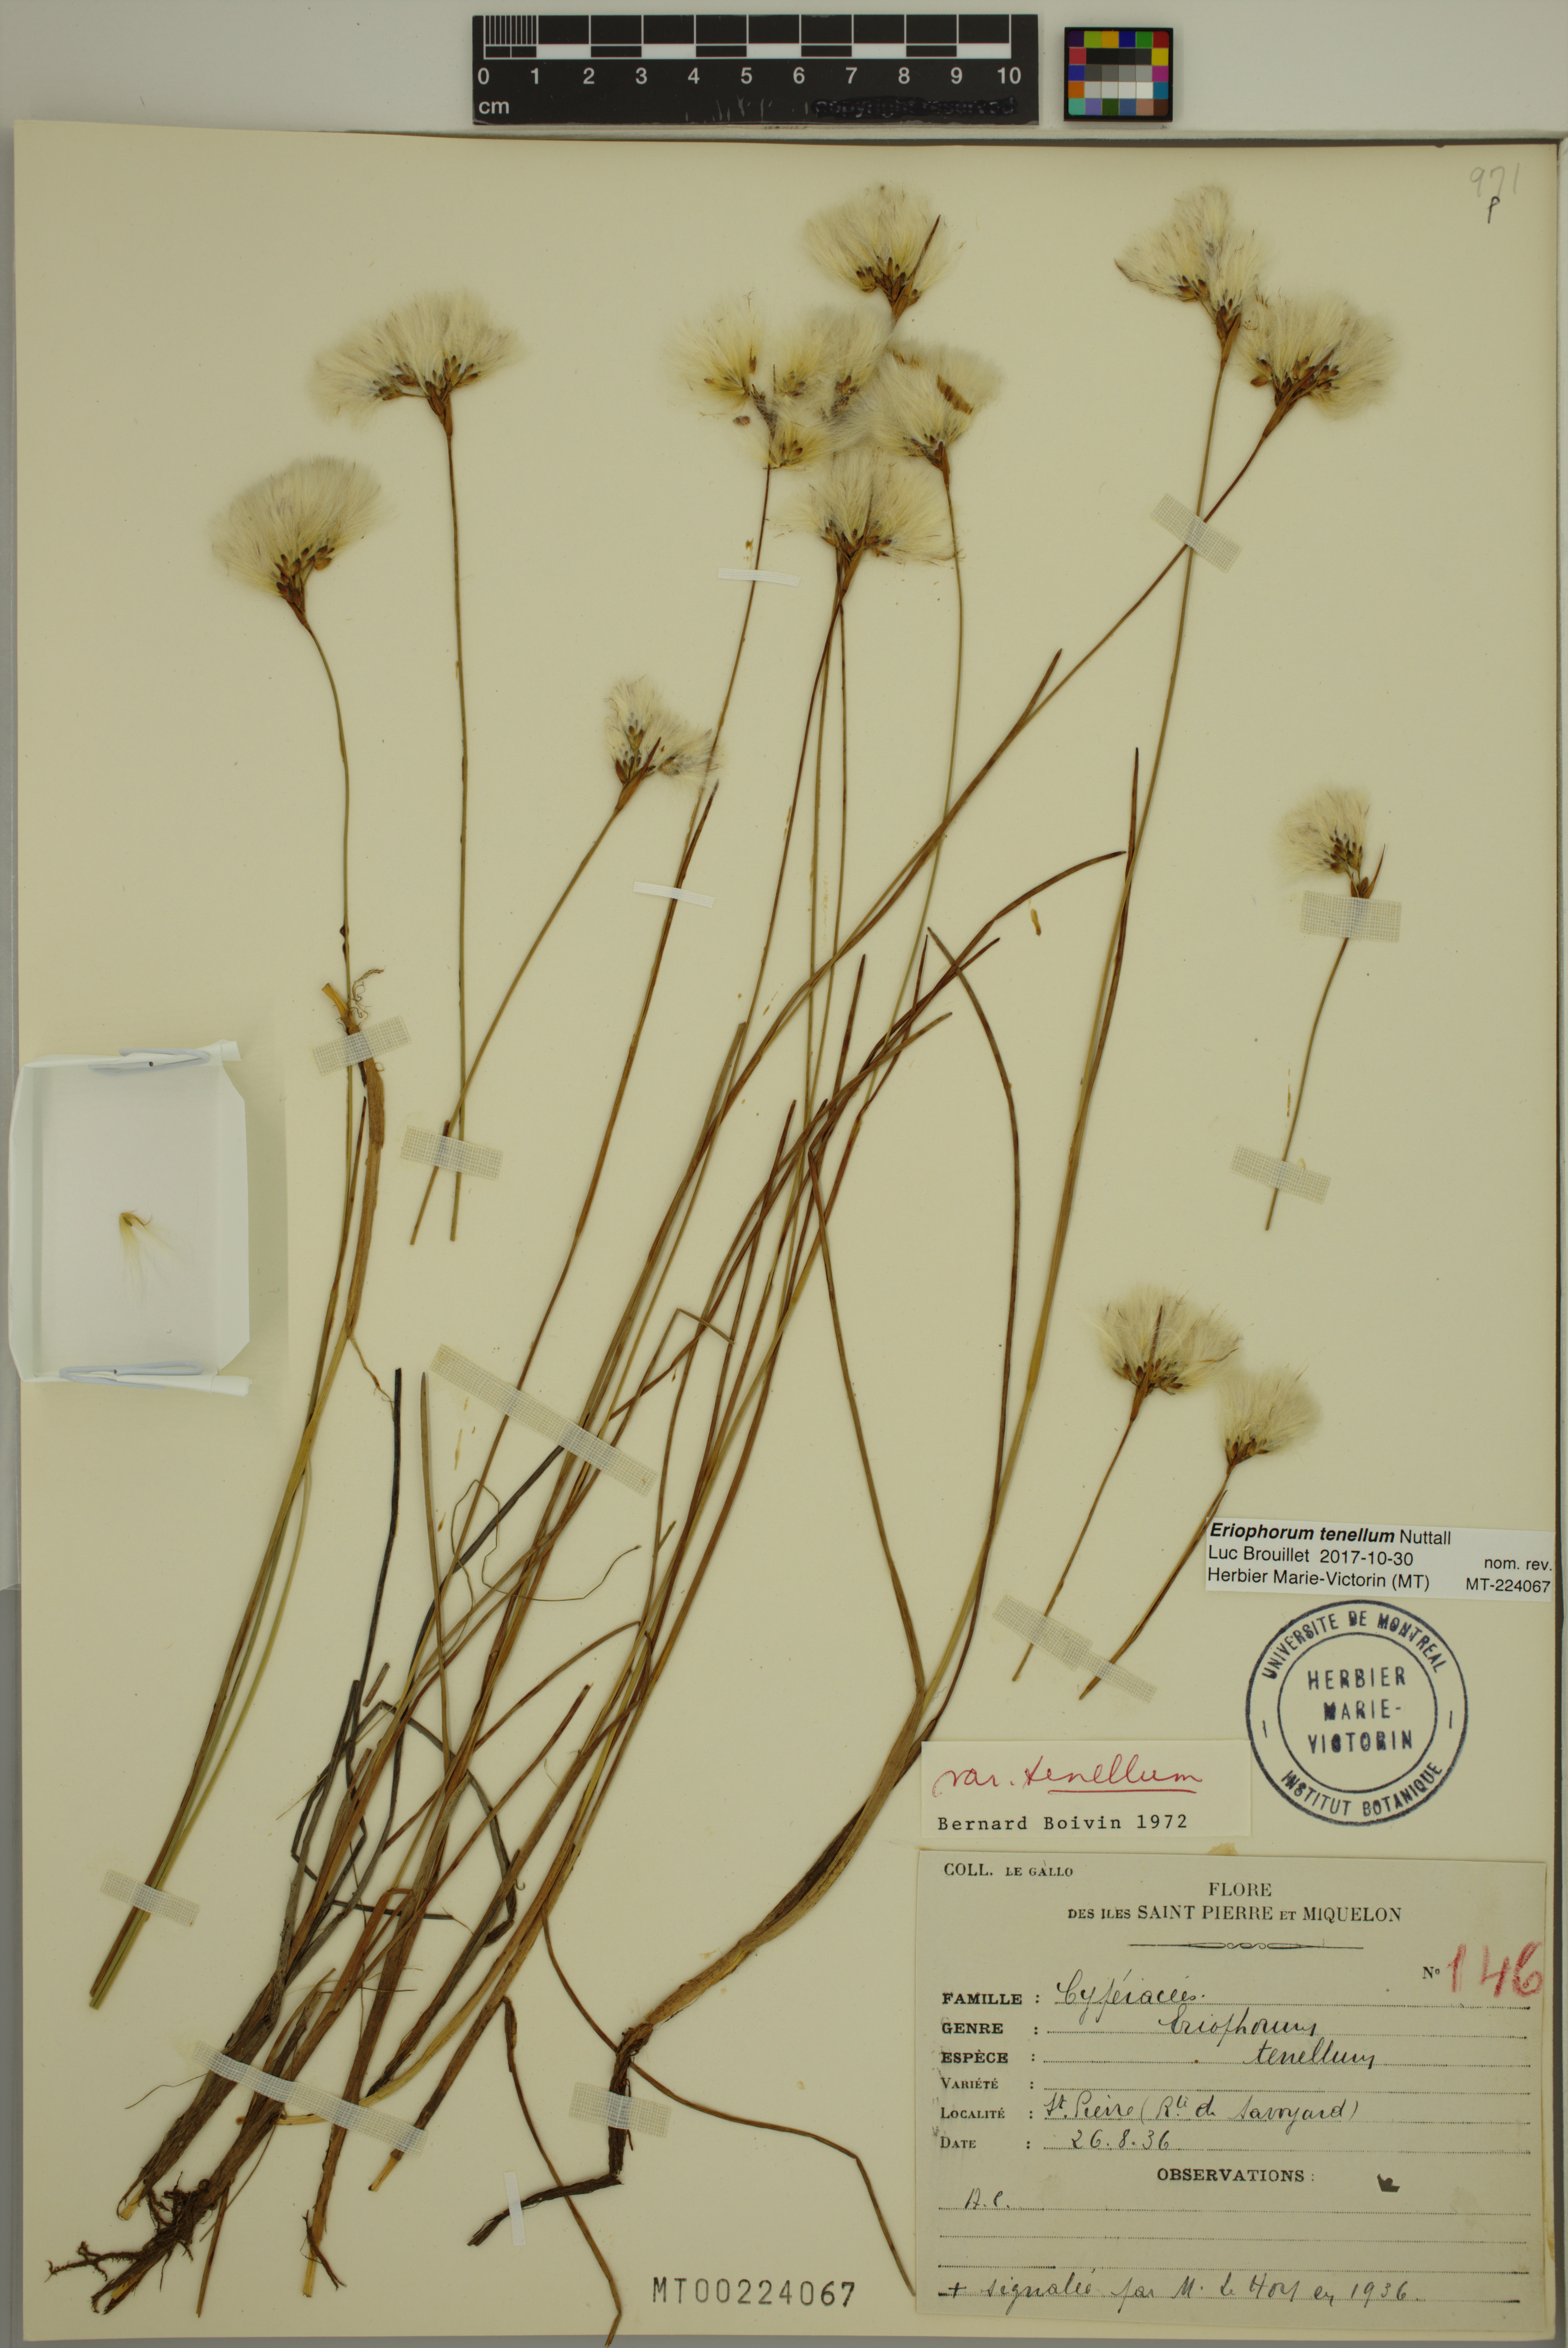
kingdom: Plantae
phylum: Tracheophyta
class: Liliopsida
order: Poales
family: Cyperaceae
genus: Eriophorum
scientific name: Eriophorum tenellum
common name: Few-nerved cottongrass
